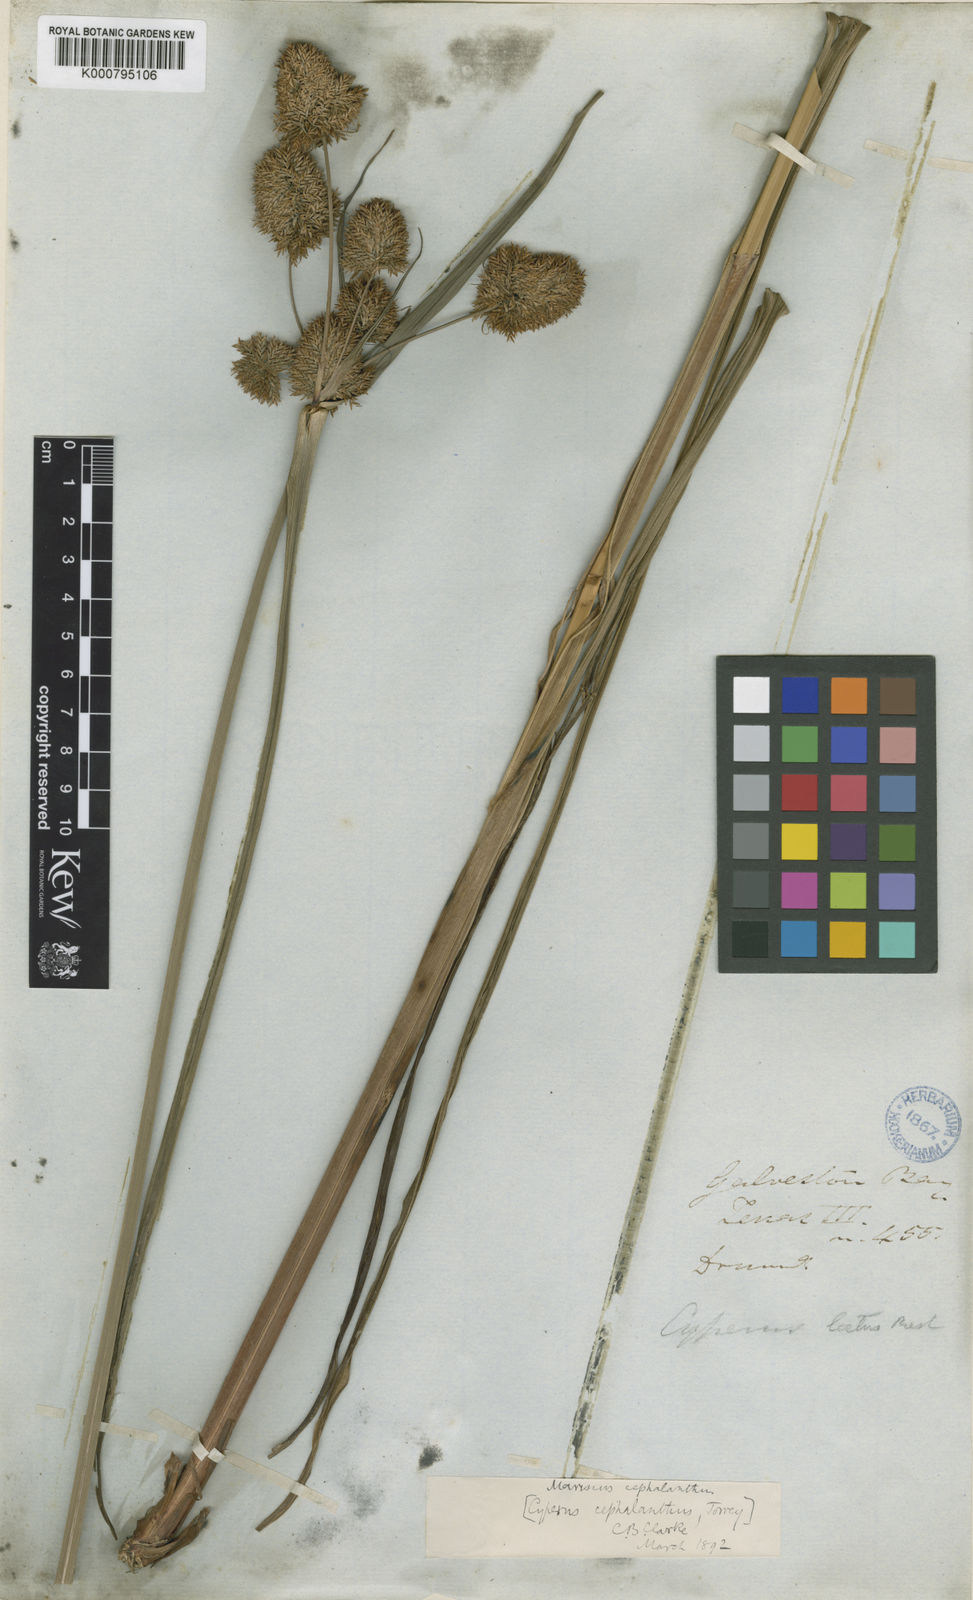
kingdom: Plantae
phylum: Tracheophyta
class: Liliopsida
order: Poales
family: Cyperaceae
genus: Cyperus
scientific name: Cyperus cephalanthus
